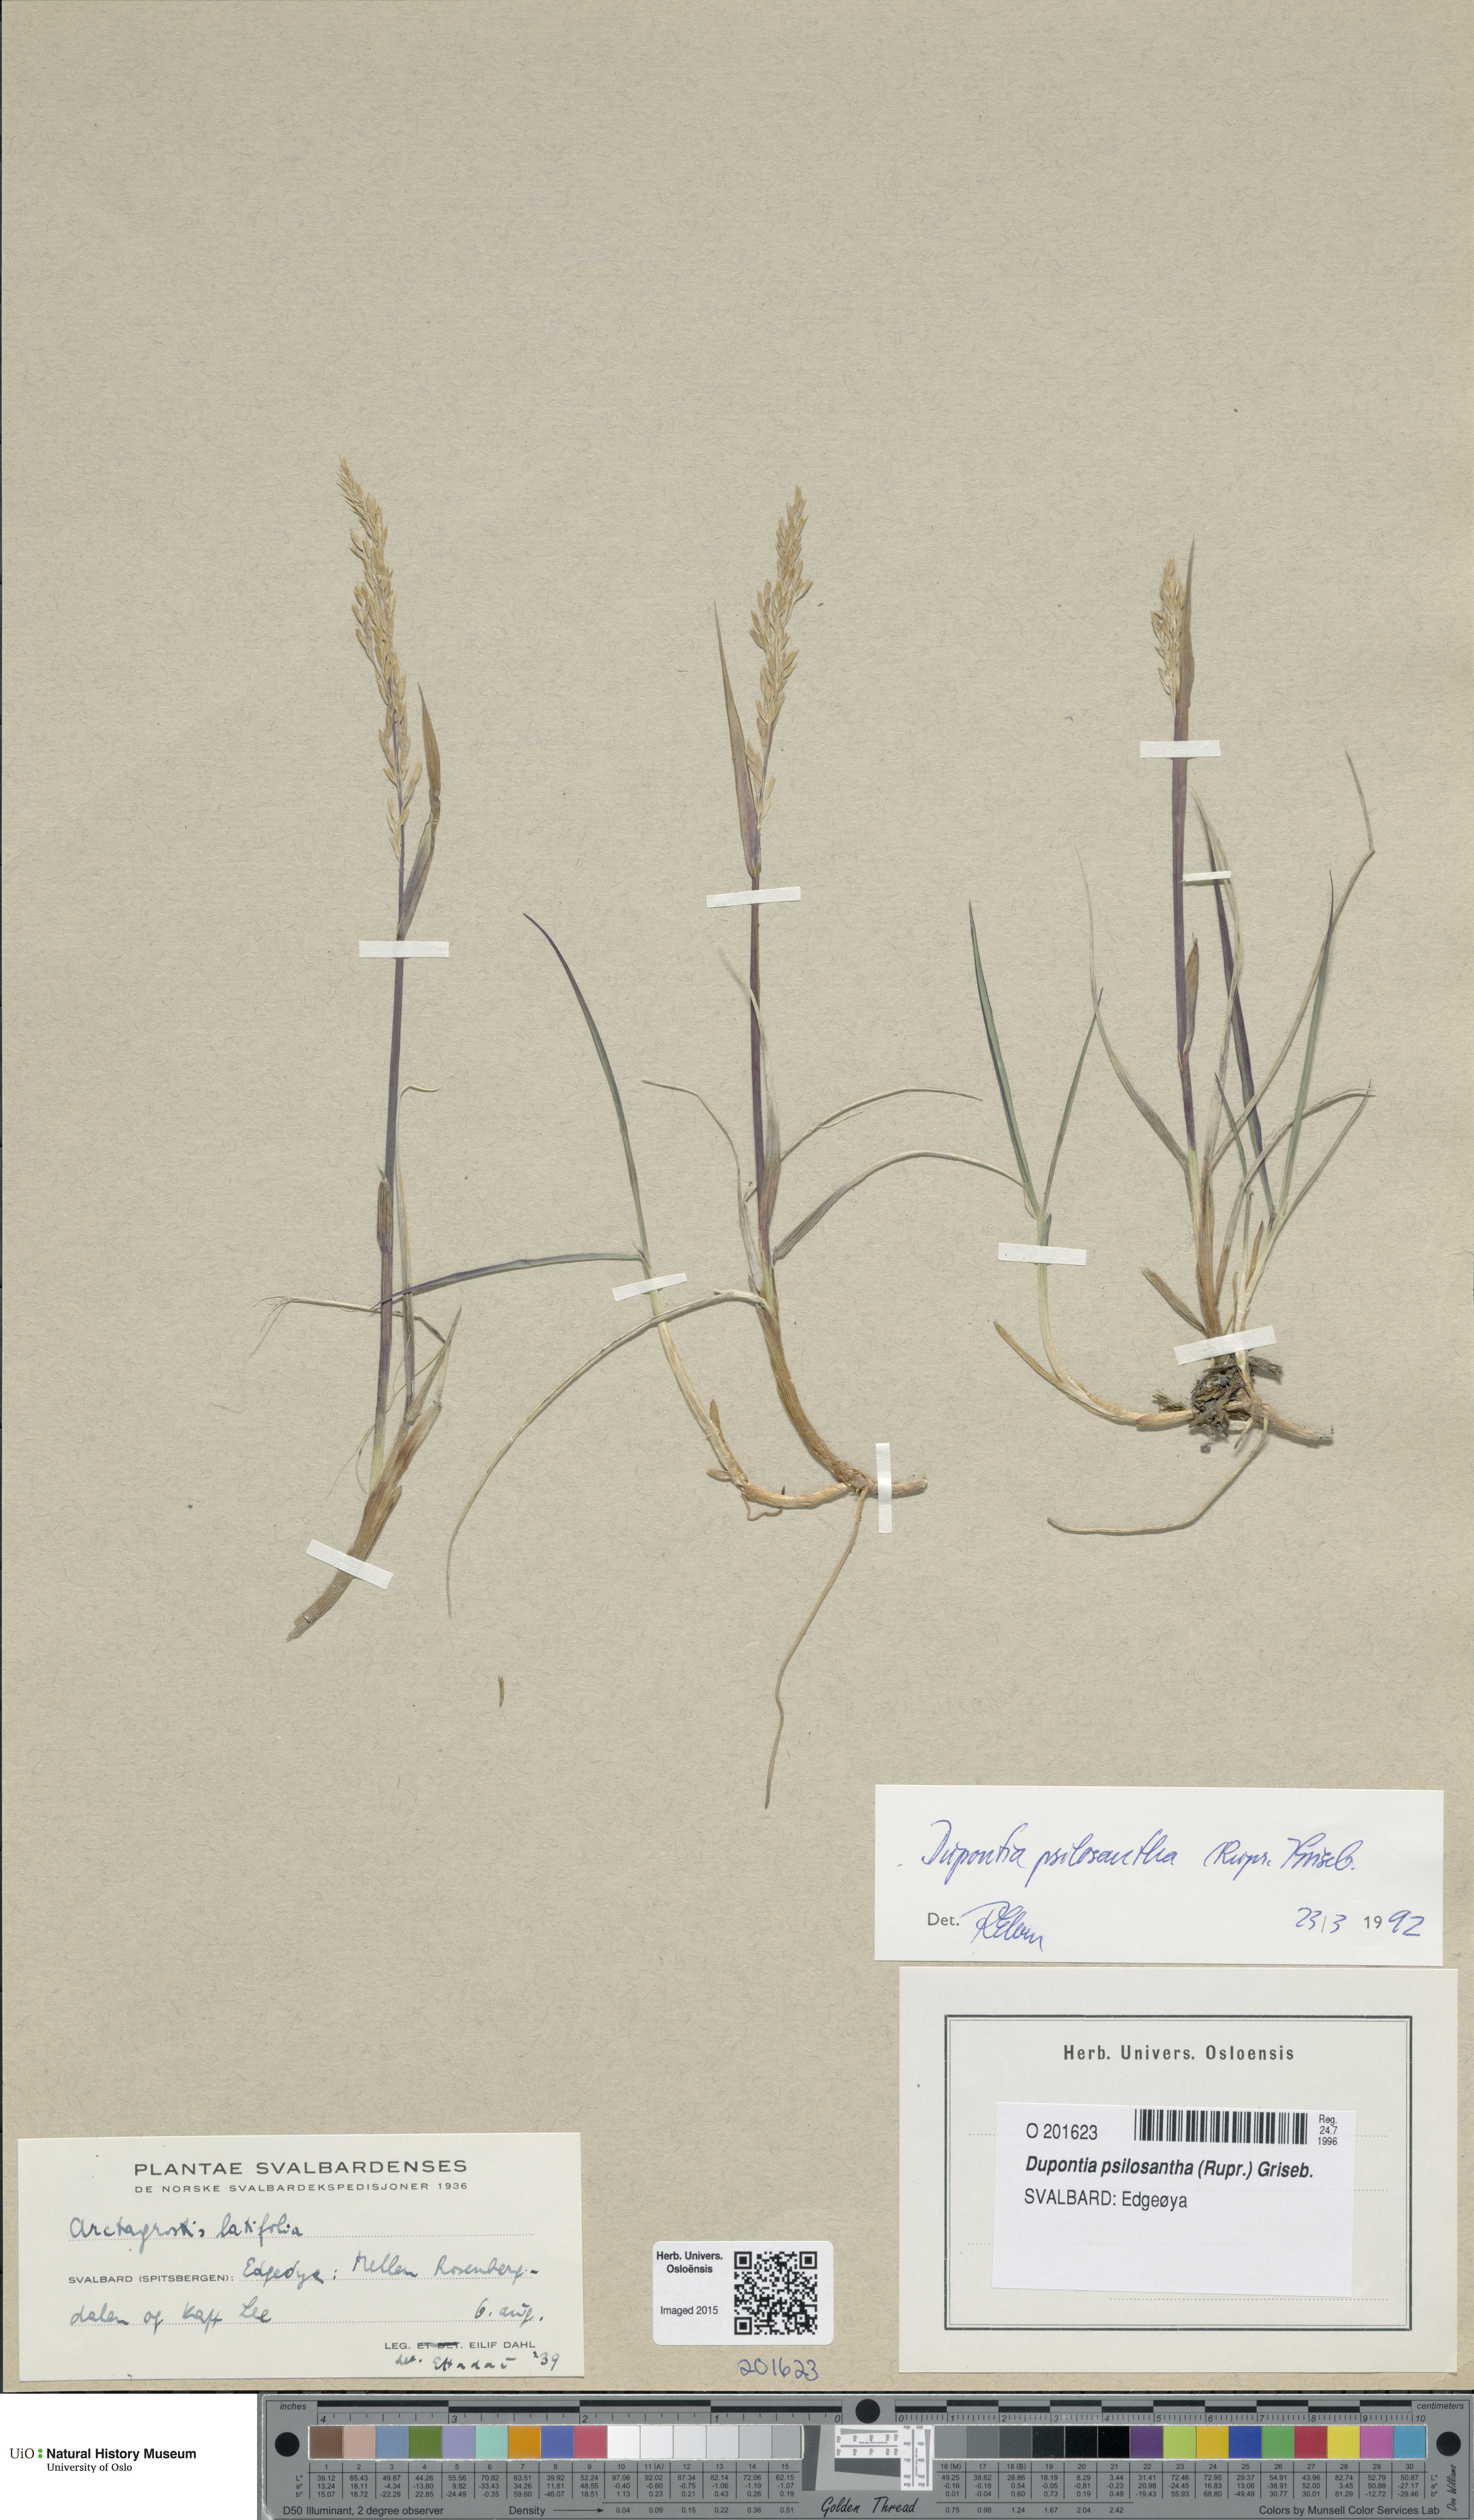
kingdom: Plantae
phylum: Tracheophyta
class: Liliopsida
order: Poales
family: Poaceae
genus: Dupontia
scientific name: Dupontia fisheri
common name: Tundra grass
